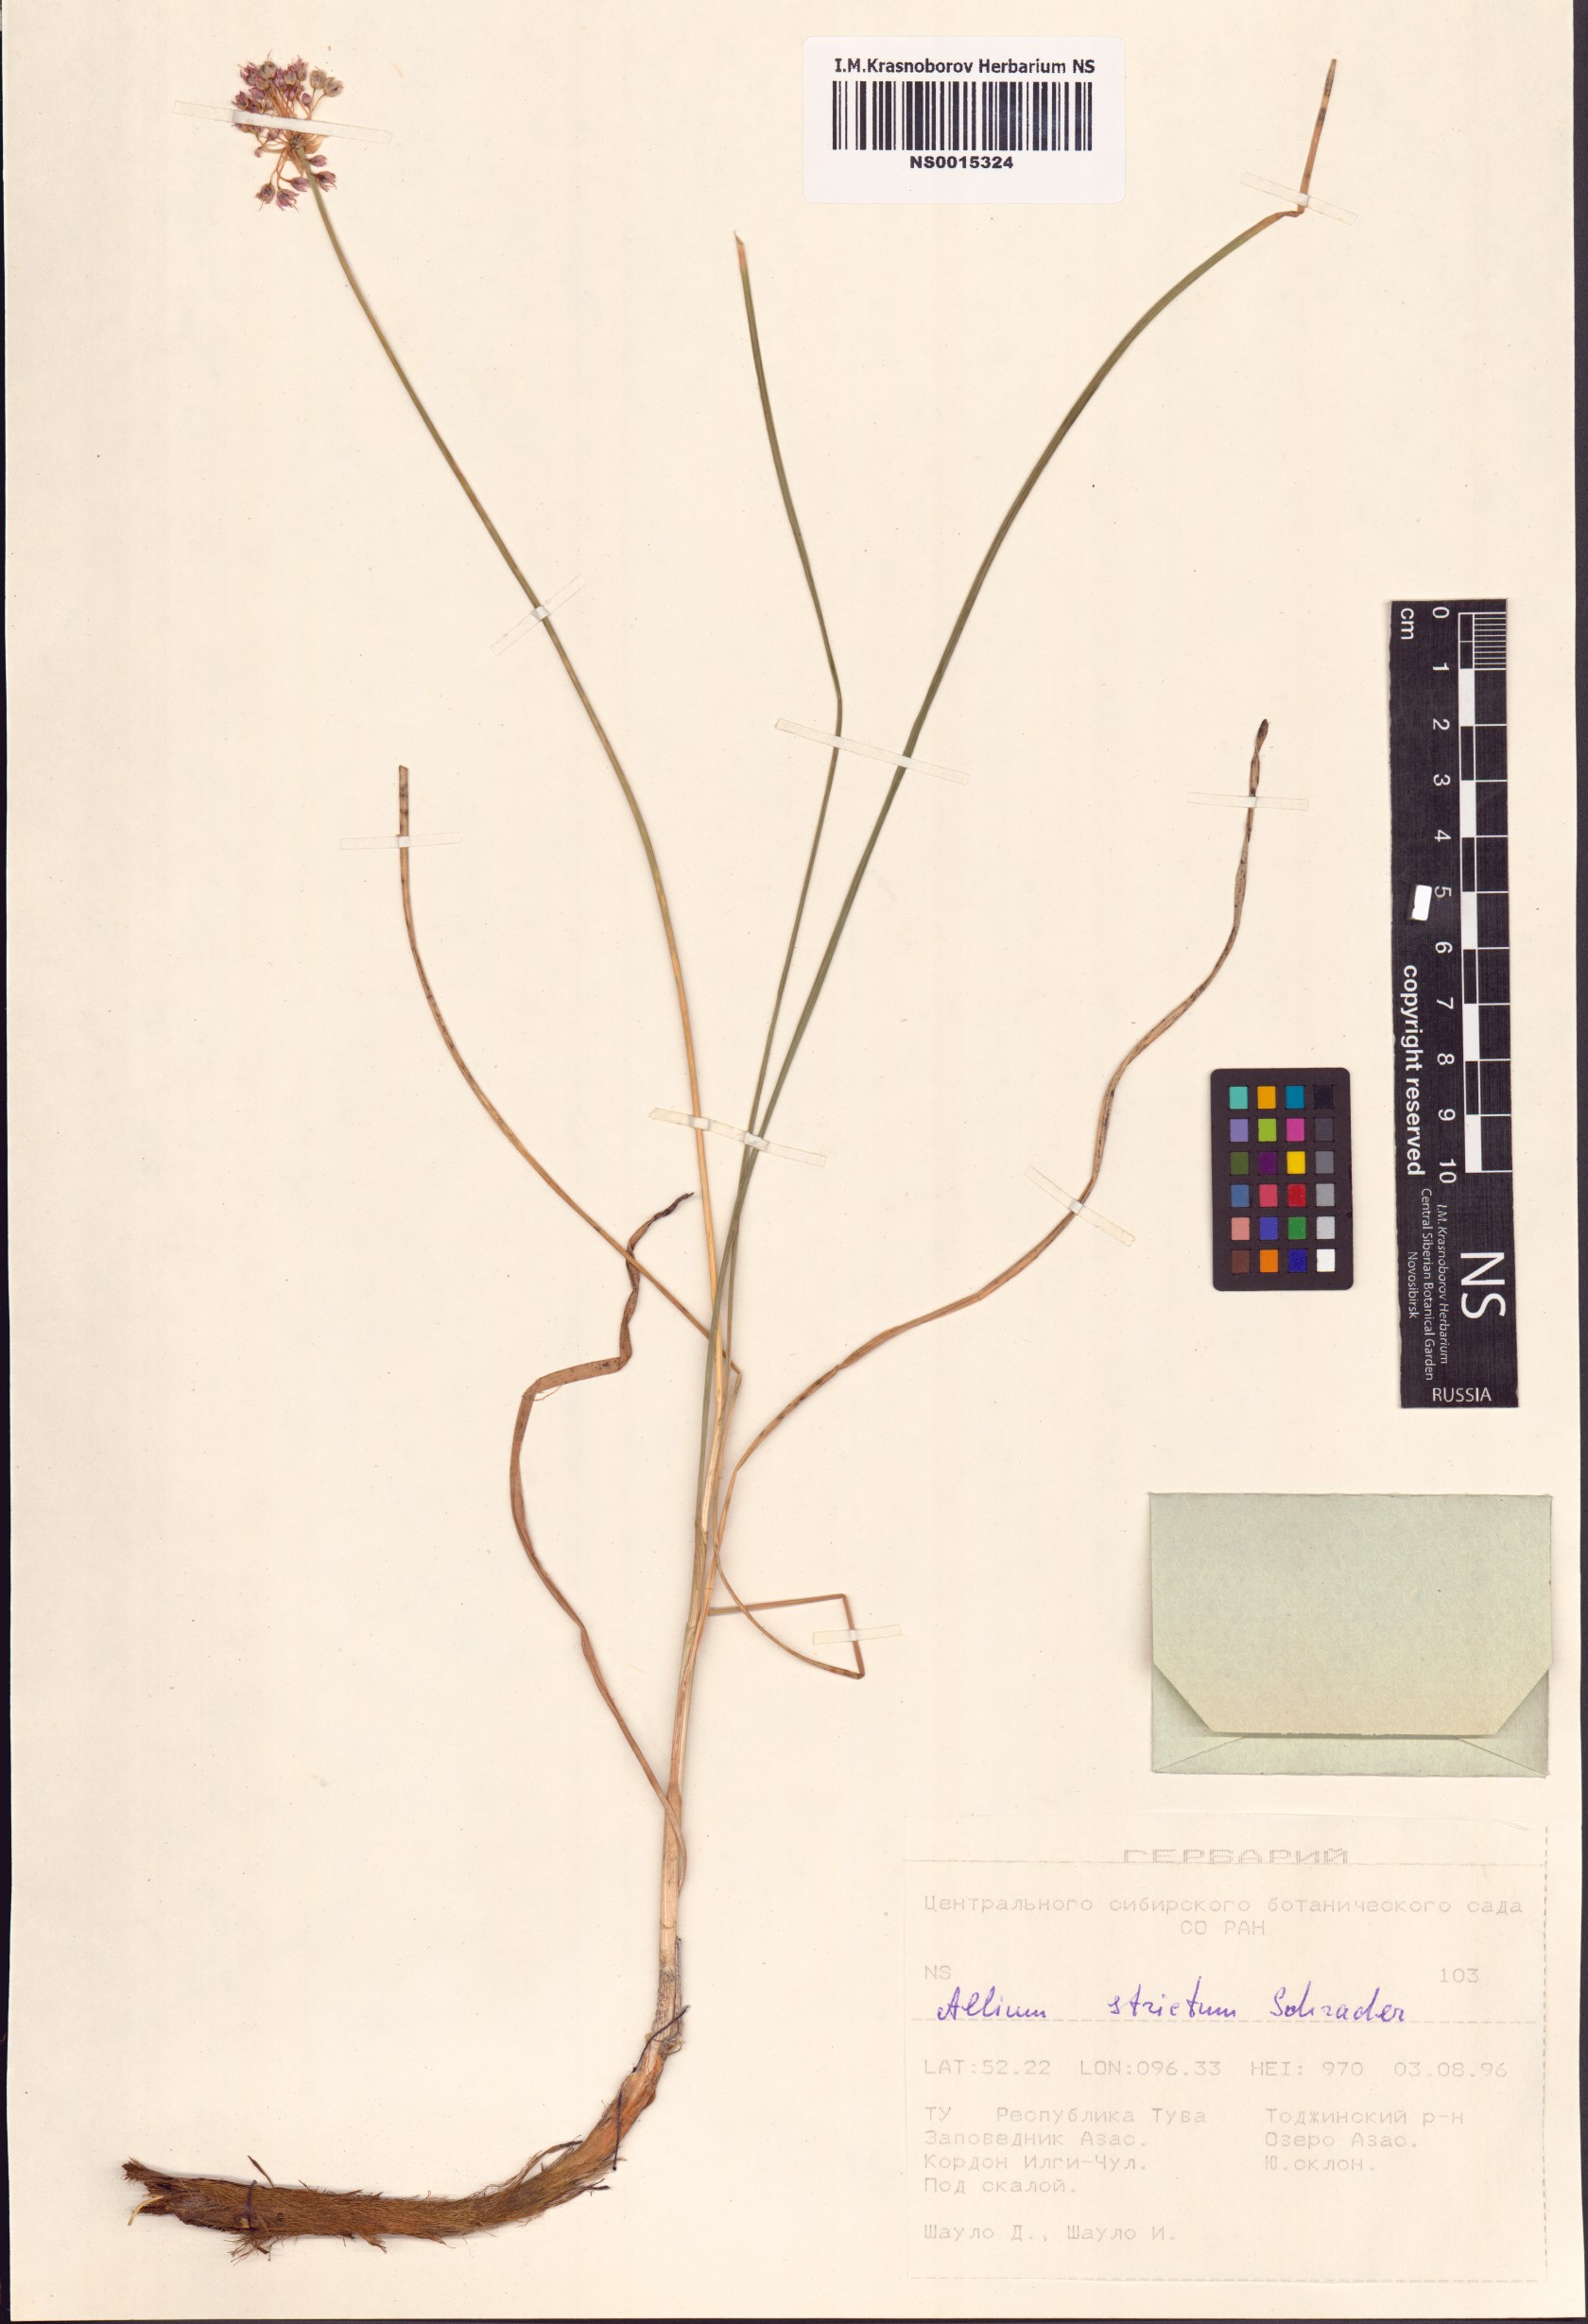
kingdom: Plantae
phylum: Tracheophyta
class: Liliopsida
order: Asparagales
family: Amaryllidaceae
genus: Allium
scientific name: Allium strictum
